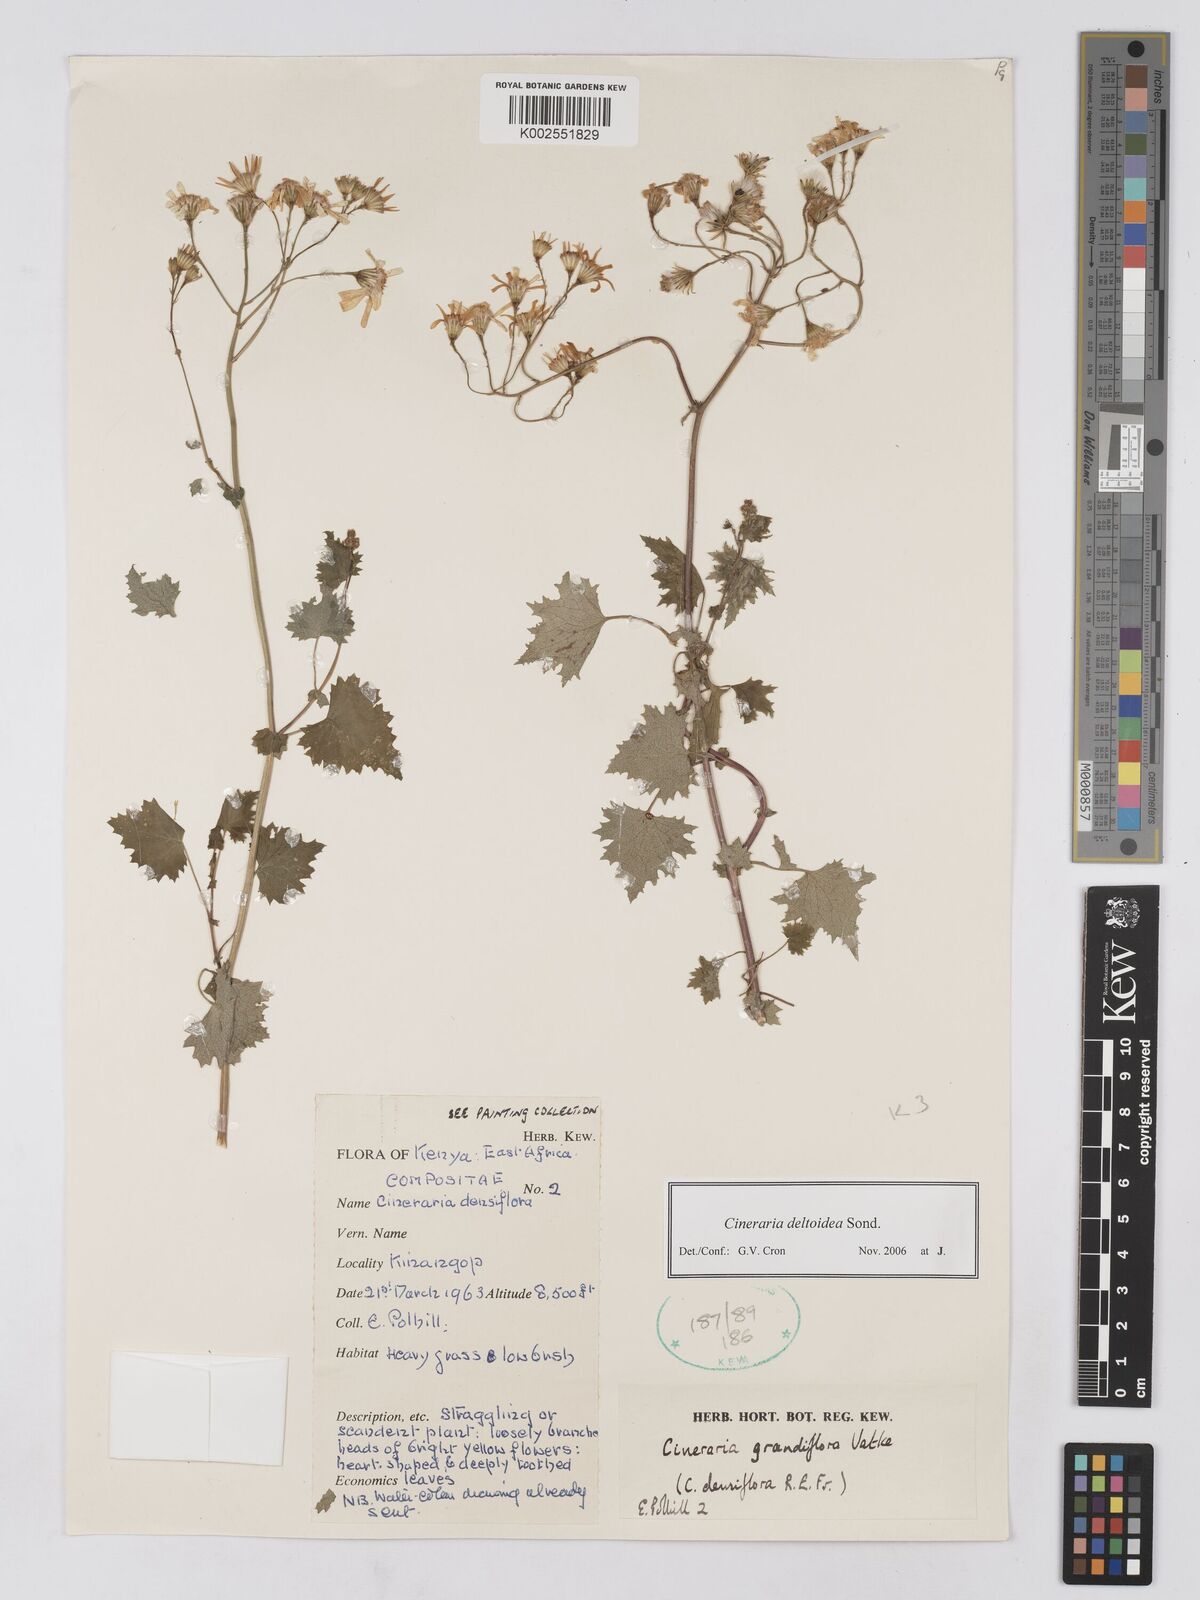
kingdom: Plantae
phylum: Tracheophyta
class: Magnoliopsida
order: Asterales
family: Asteraceae
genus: Cineraria
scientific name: Cineraria deltoidea
